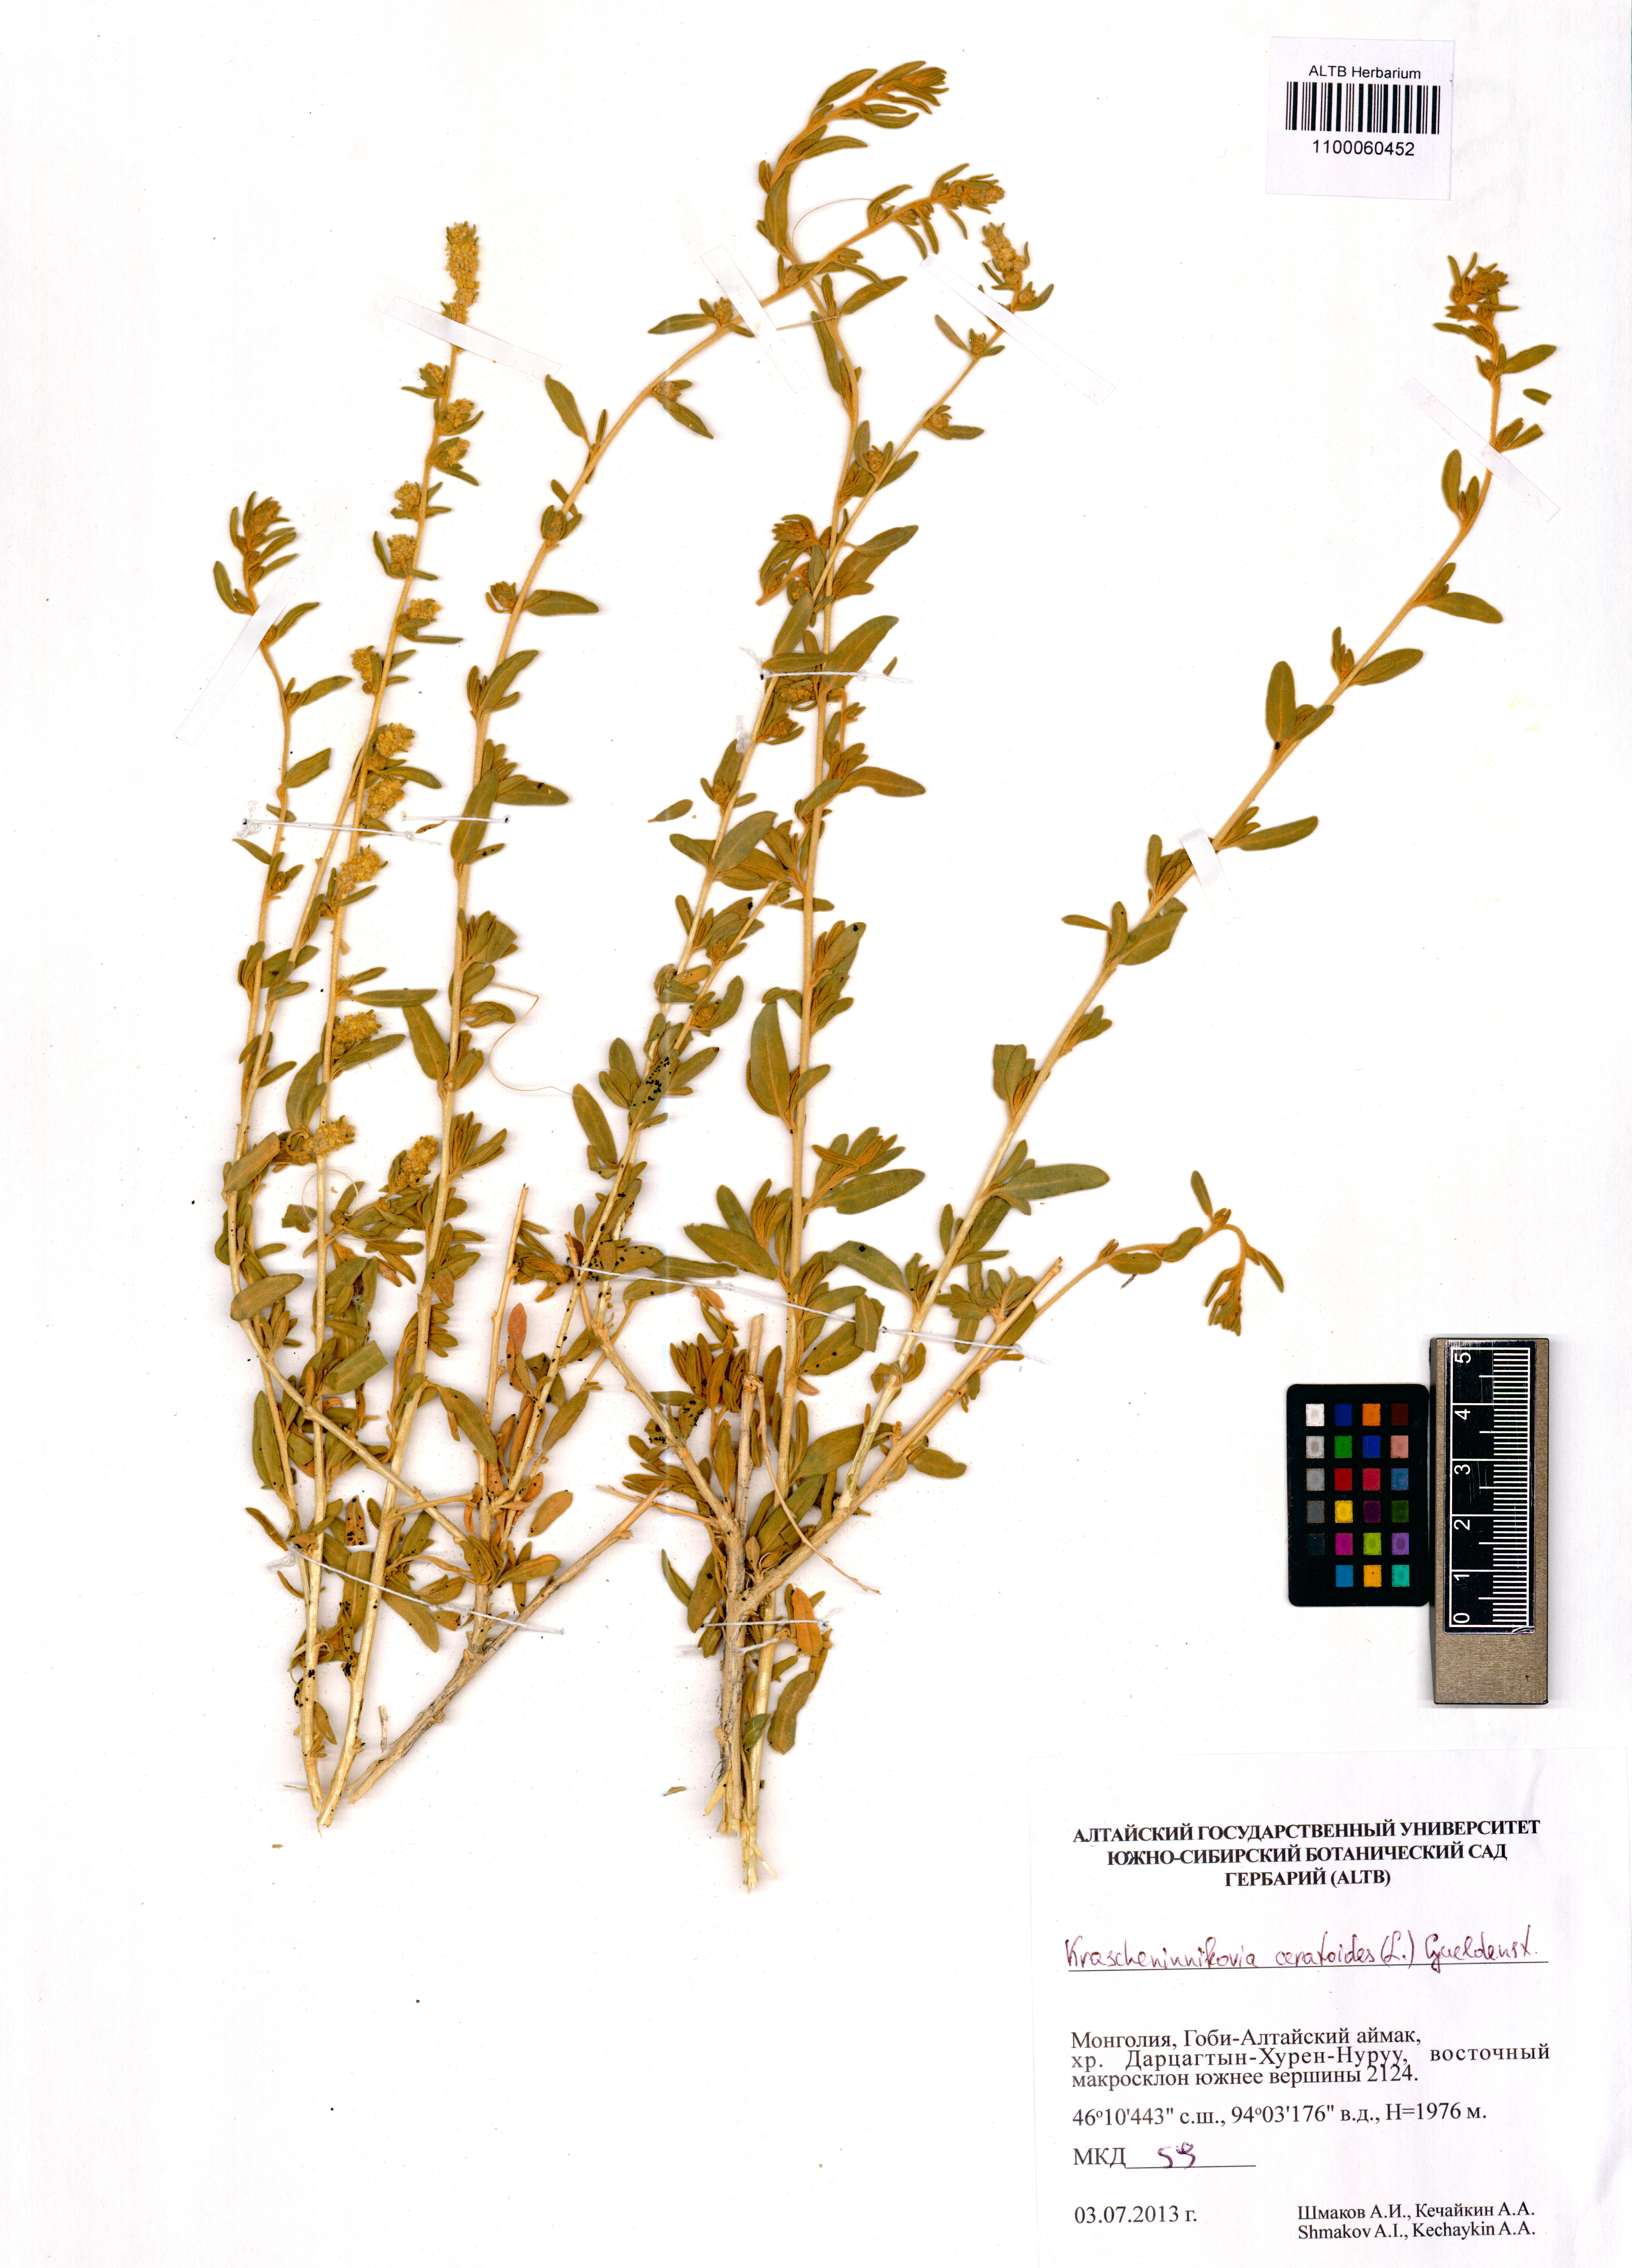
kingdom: Plantae
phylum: Tracheophyta
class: Magnoliopsida
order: Caryophyllales
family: Amaranthaceae
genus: Krascheninnikovia
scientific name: Krascheninnikovia ceratoides
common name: Pamirian winterfat
